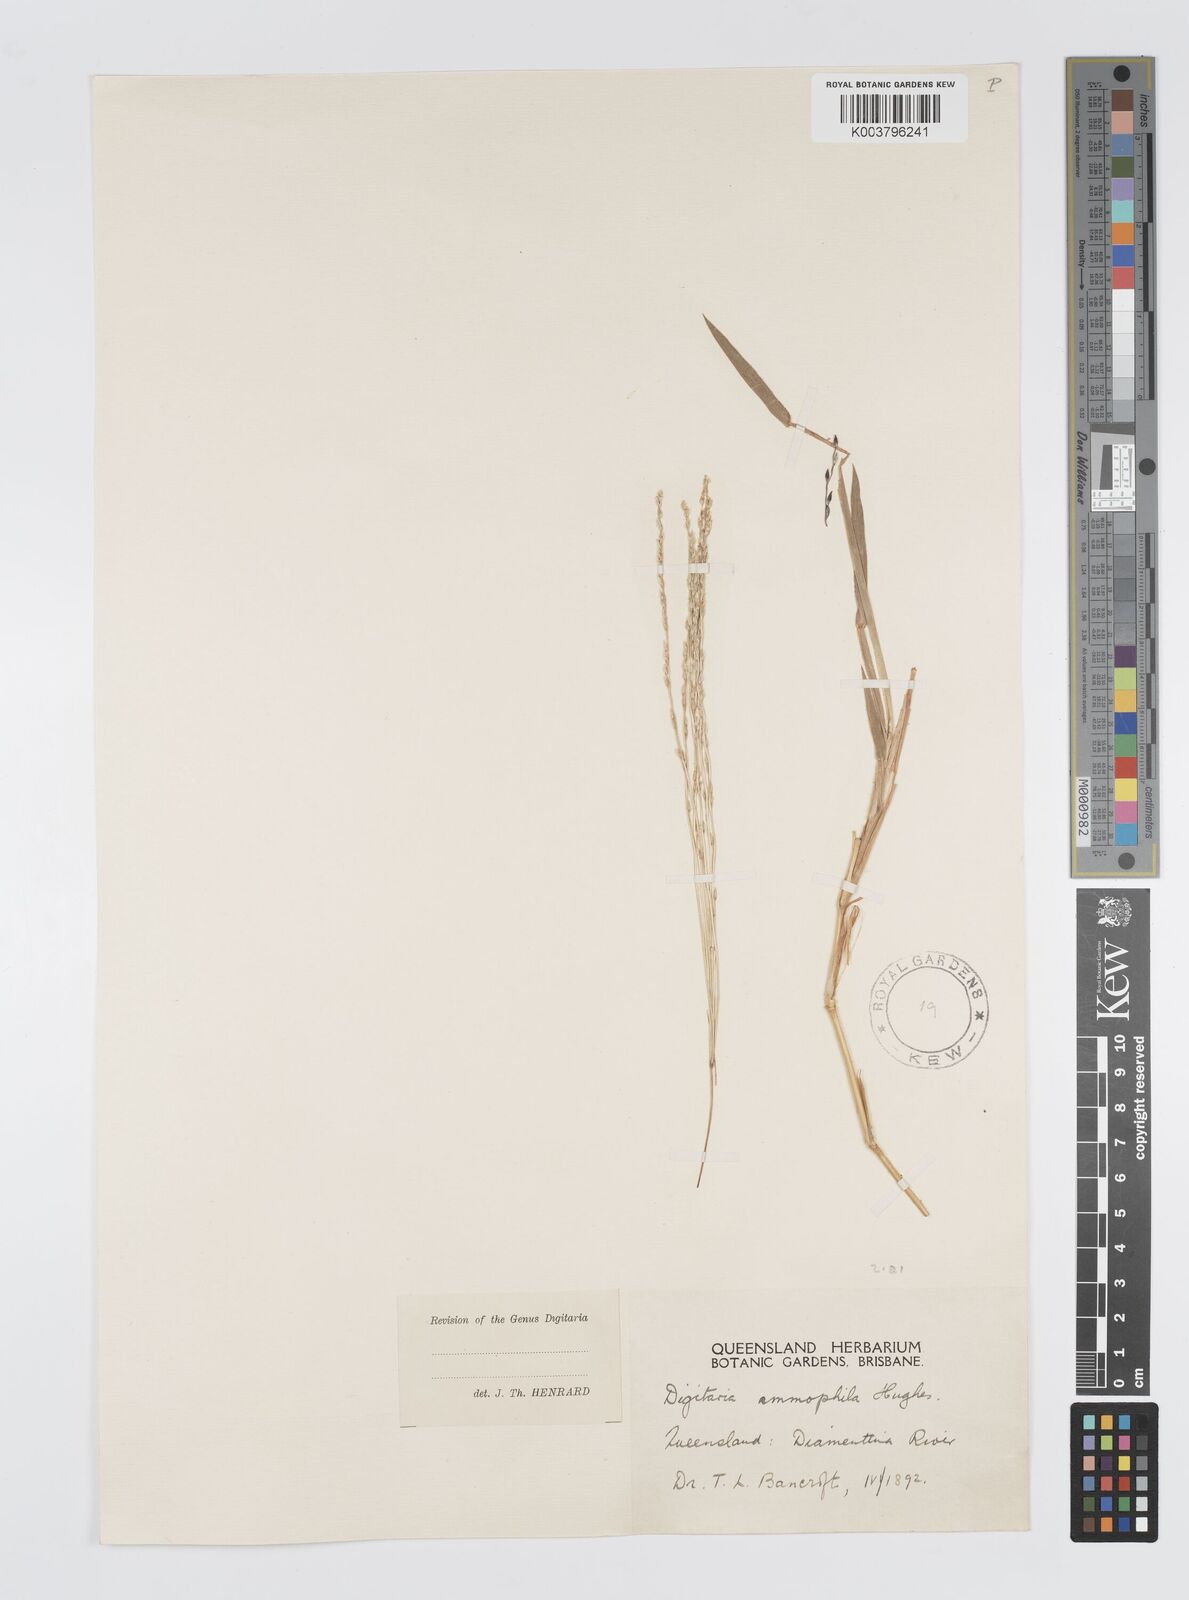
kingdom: Plantae
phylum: Tracheophyta
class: Liliopsida
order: Poales
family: Poaceae
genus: Digitaria
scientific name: Digitaria ammophila
